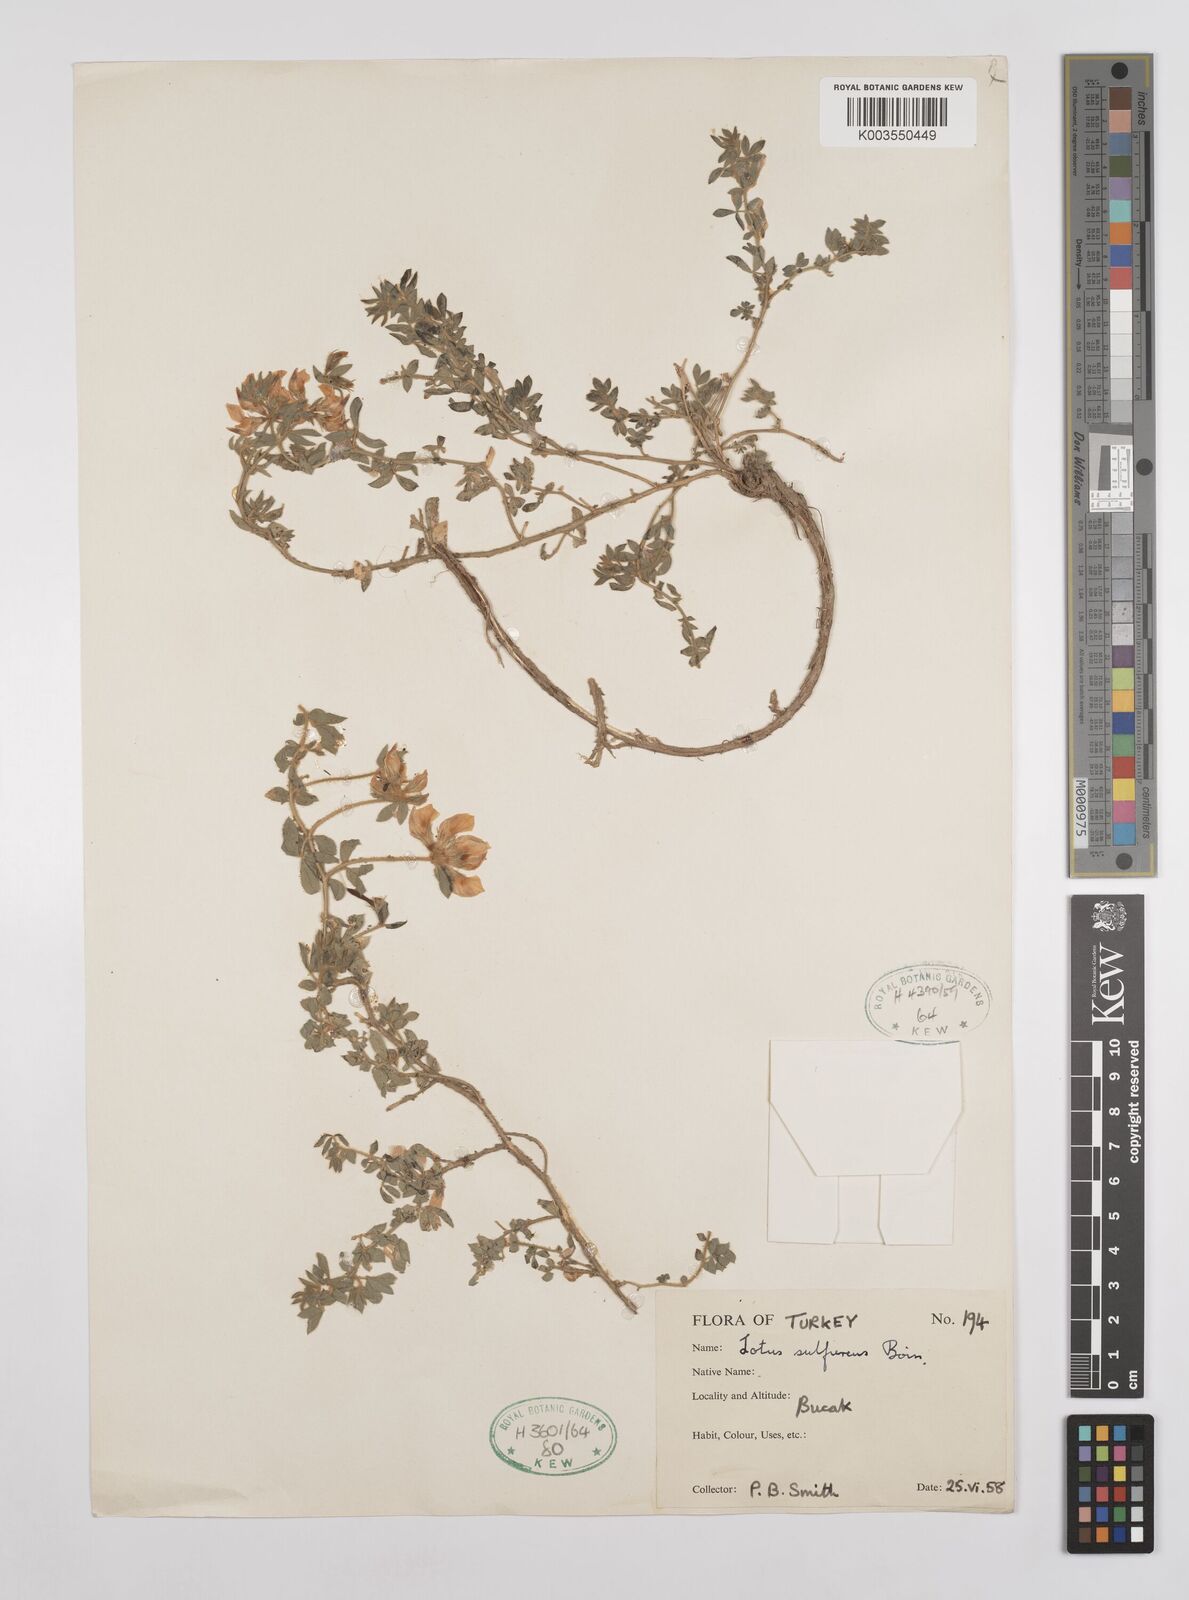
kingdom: Plantae
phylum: Tracheophyta
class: Magnoliopsida
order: Fabales
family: Fabaceae
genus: Lotus
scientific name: Lotus aegaeus
